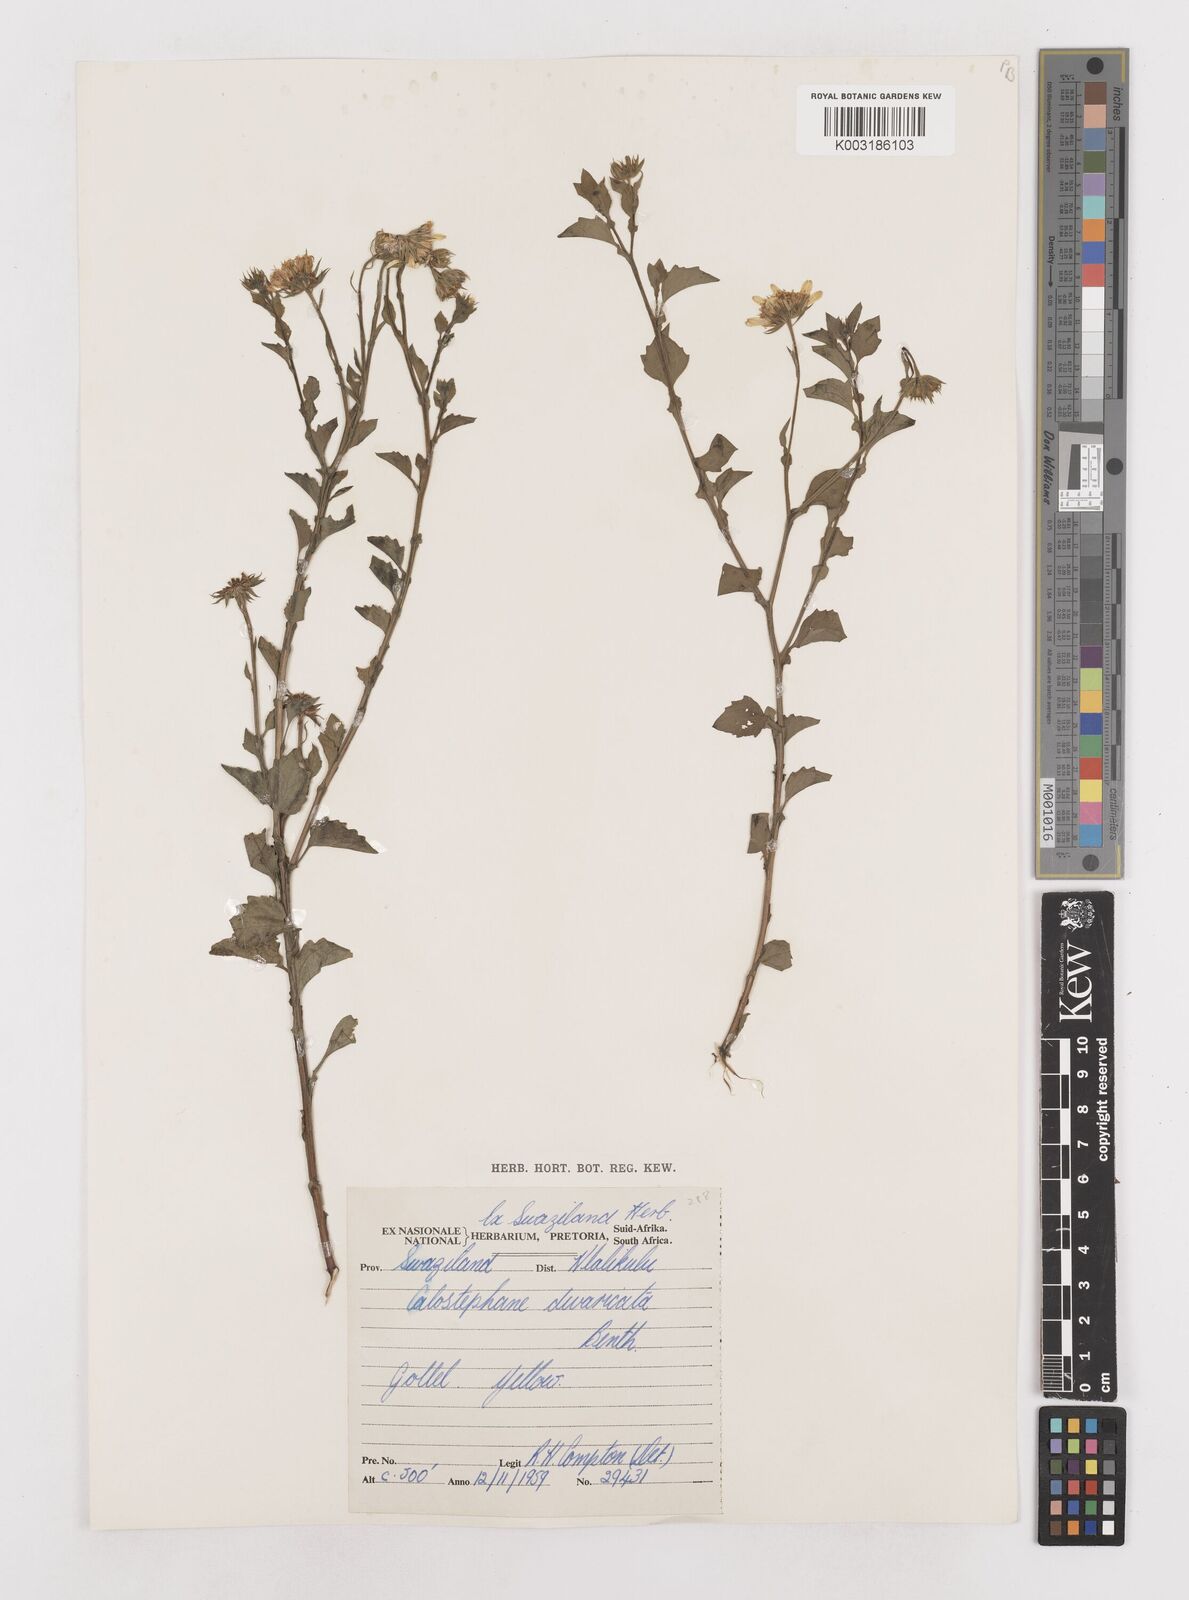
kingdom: Plantae
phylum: Tracheophyta
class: Magnoliopsida
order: Asterales
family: Asteraceae
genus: Calostephane
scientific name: Calostephane divaricata
